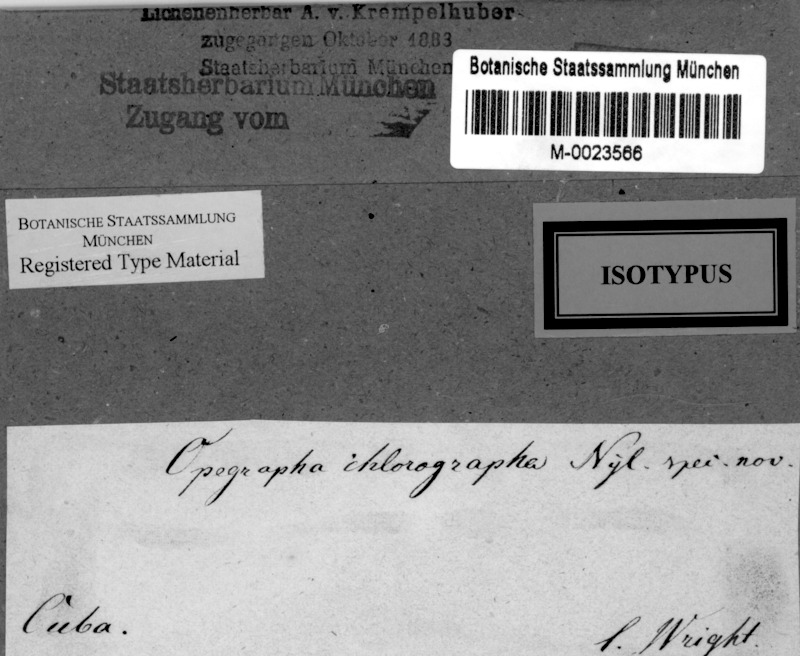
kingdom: Fungi
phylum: Ascomycota
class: Arthoniomycetes
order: Arthoniales
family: Opegraphaceae
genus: Opegrapha
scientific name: Opegrapha
